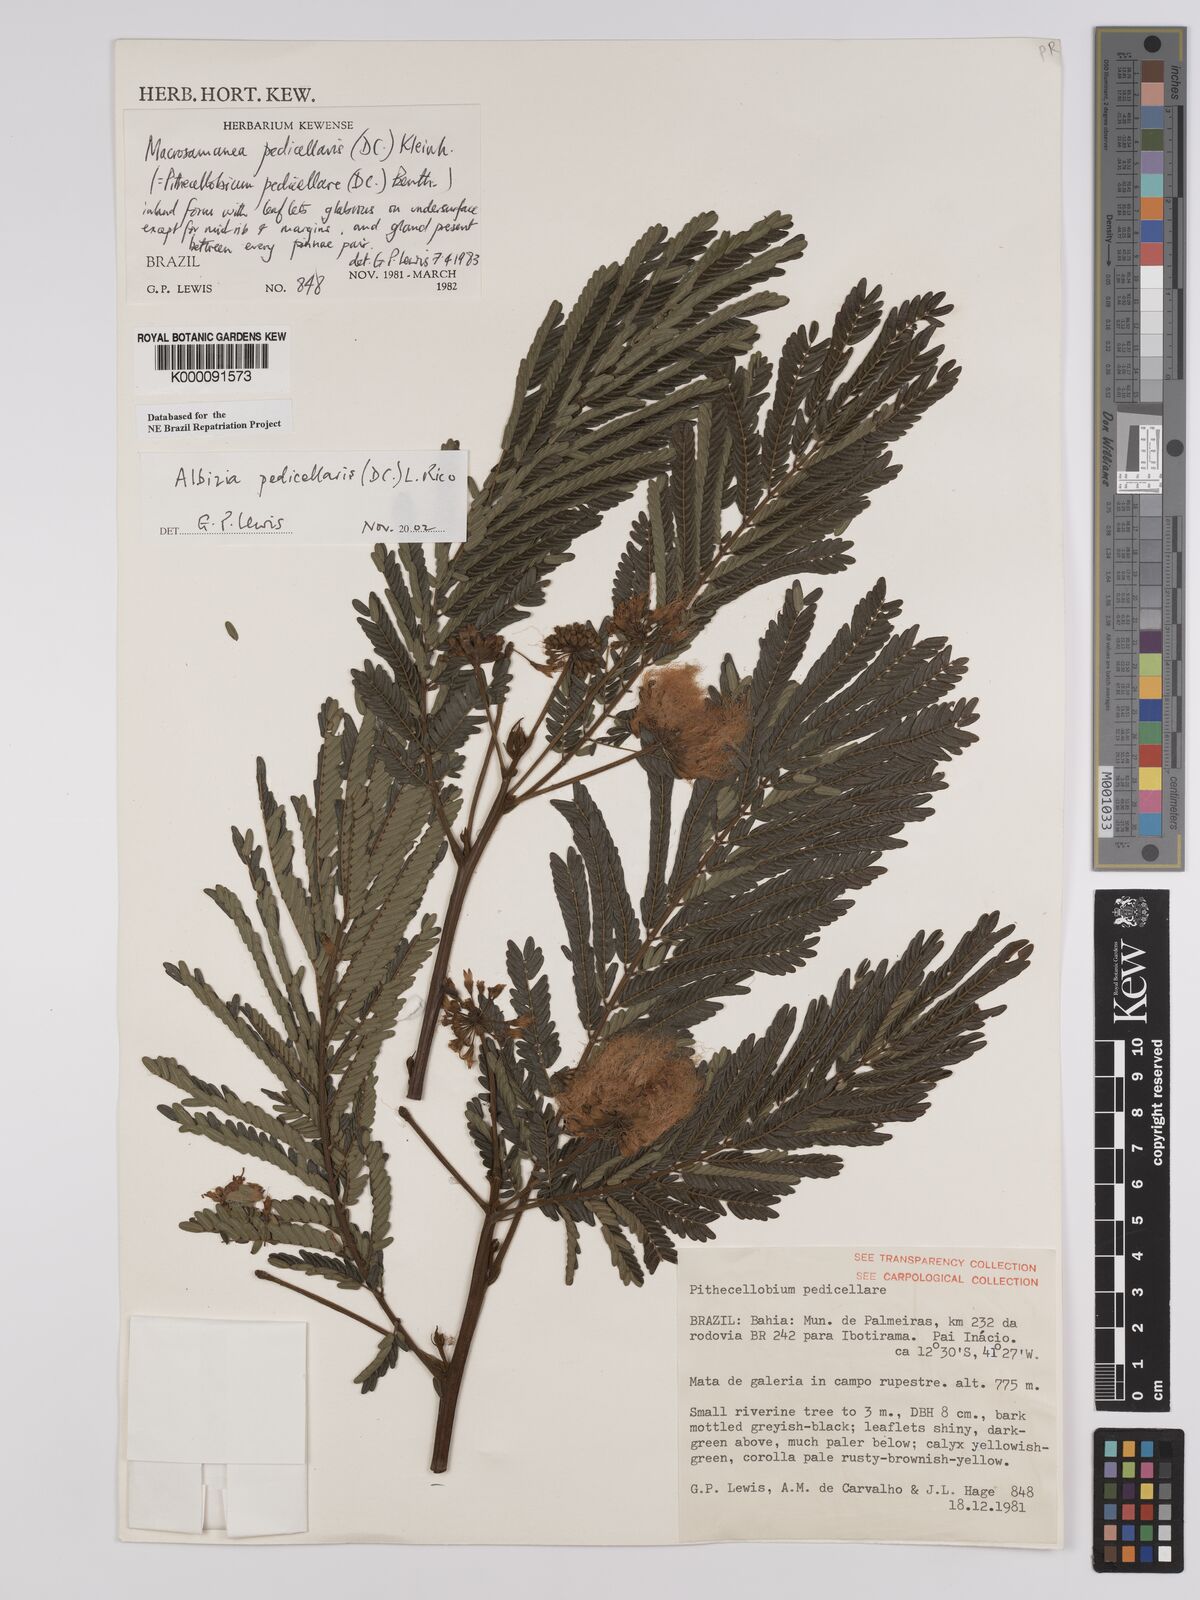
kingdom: Plantae
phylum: Tracheophyta
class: Magnoliopsida
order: Fabales
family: Fabaceae
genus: Balizia
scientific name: Balizia pedicellaris
